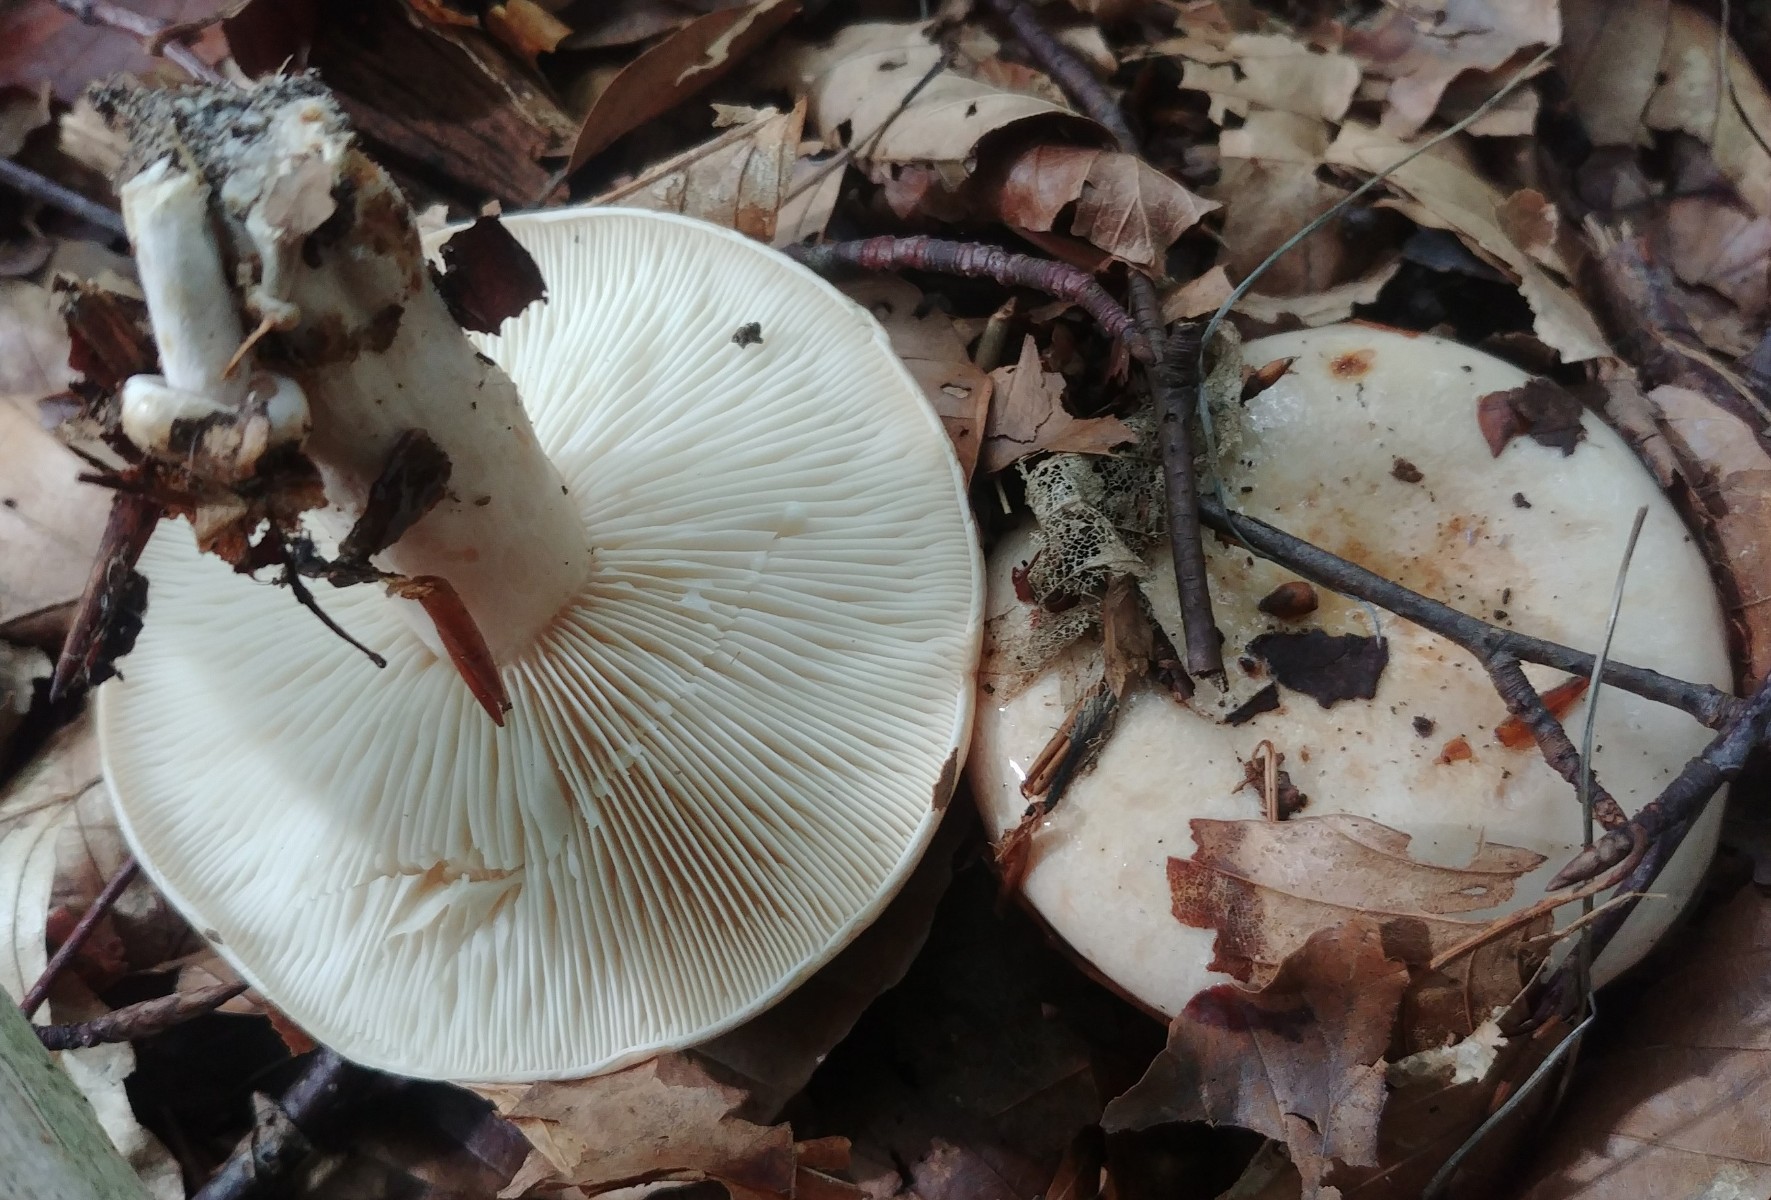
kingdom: Fungi
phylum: Basidiomycota
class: Agaricomycetes
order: Russulales
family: Russulaceae
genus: Lactarius
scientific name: Lactarius pallidus
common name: bleg mælkehat
